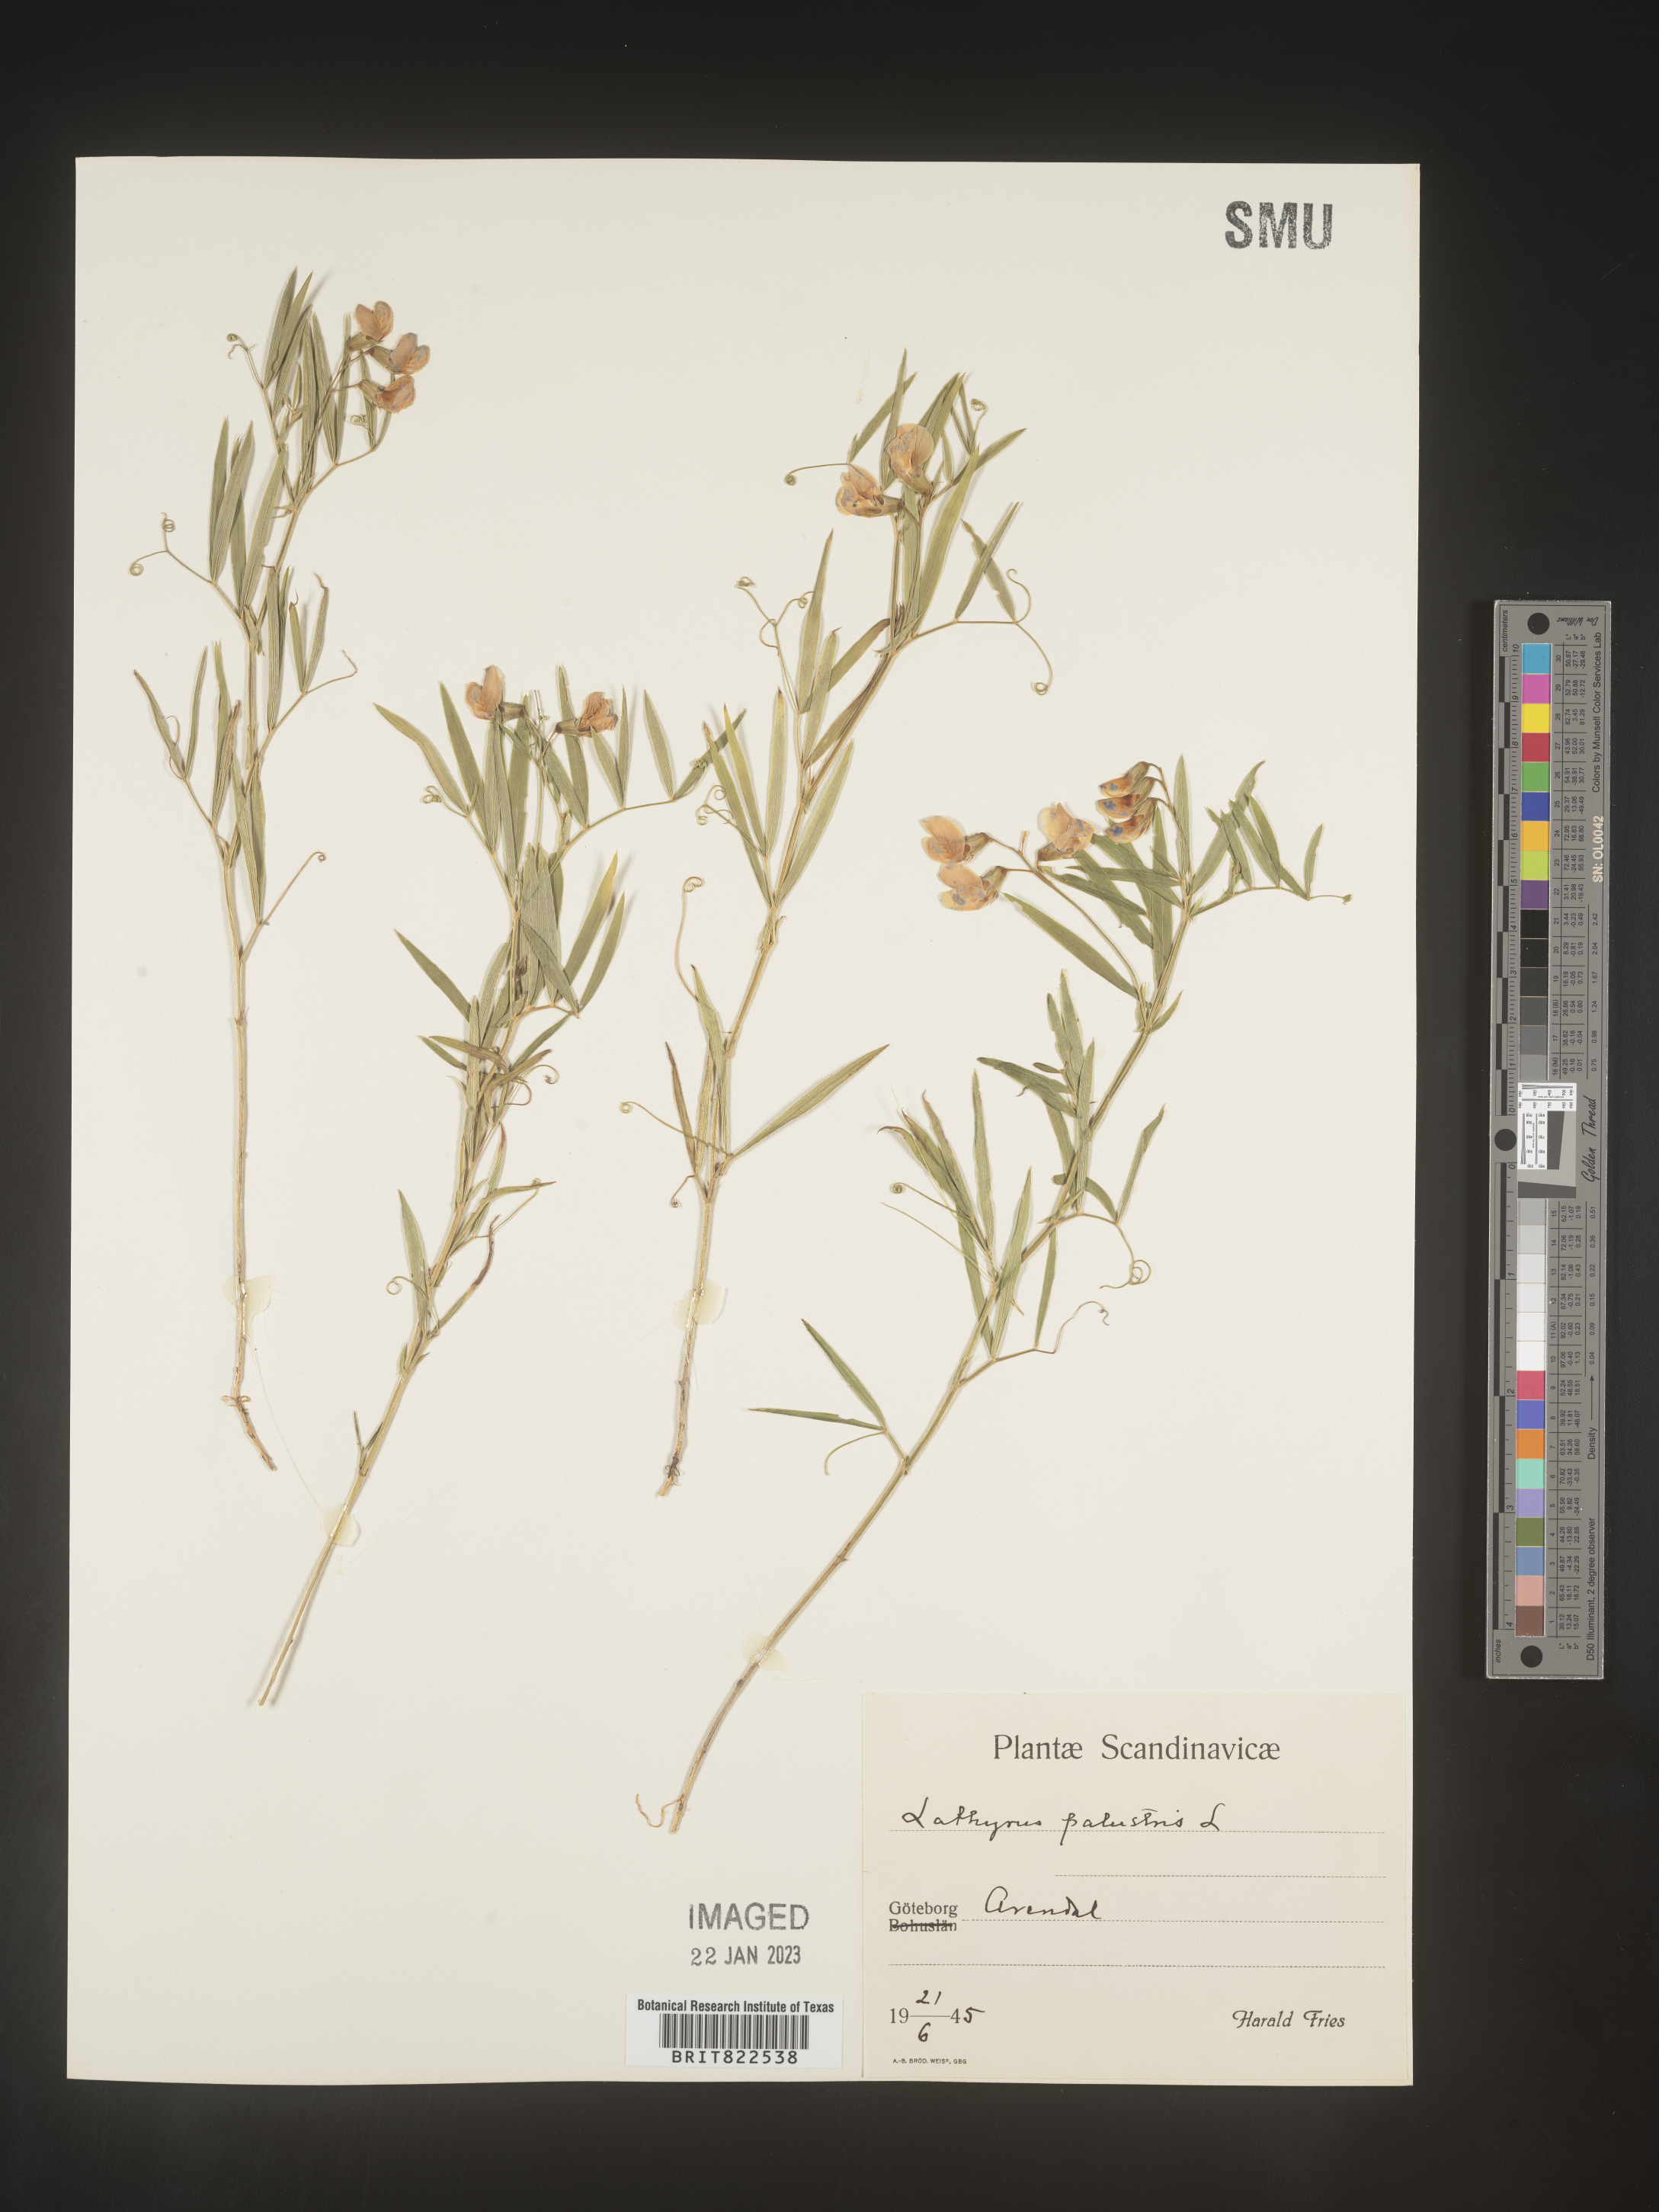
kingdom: Plantae
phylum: Tracheophyta
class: Magnoliopsida
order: Fabales
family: Fabaceae
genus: Lathyrus
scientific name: Lathyrus
